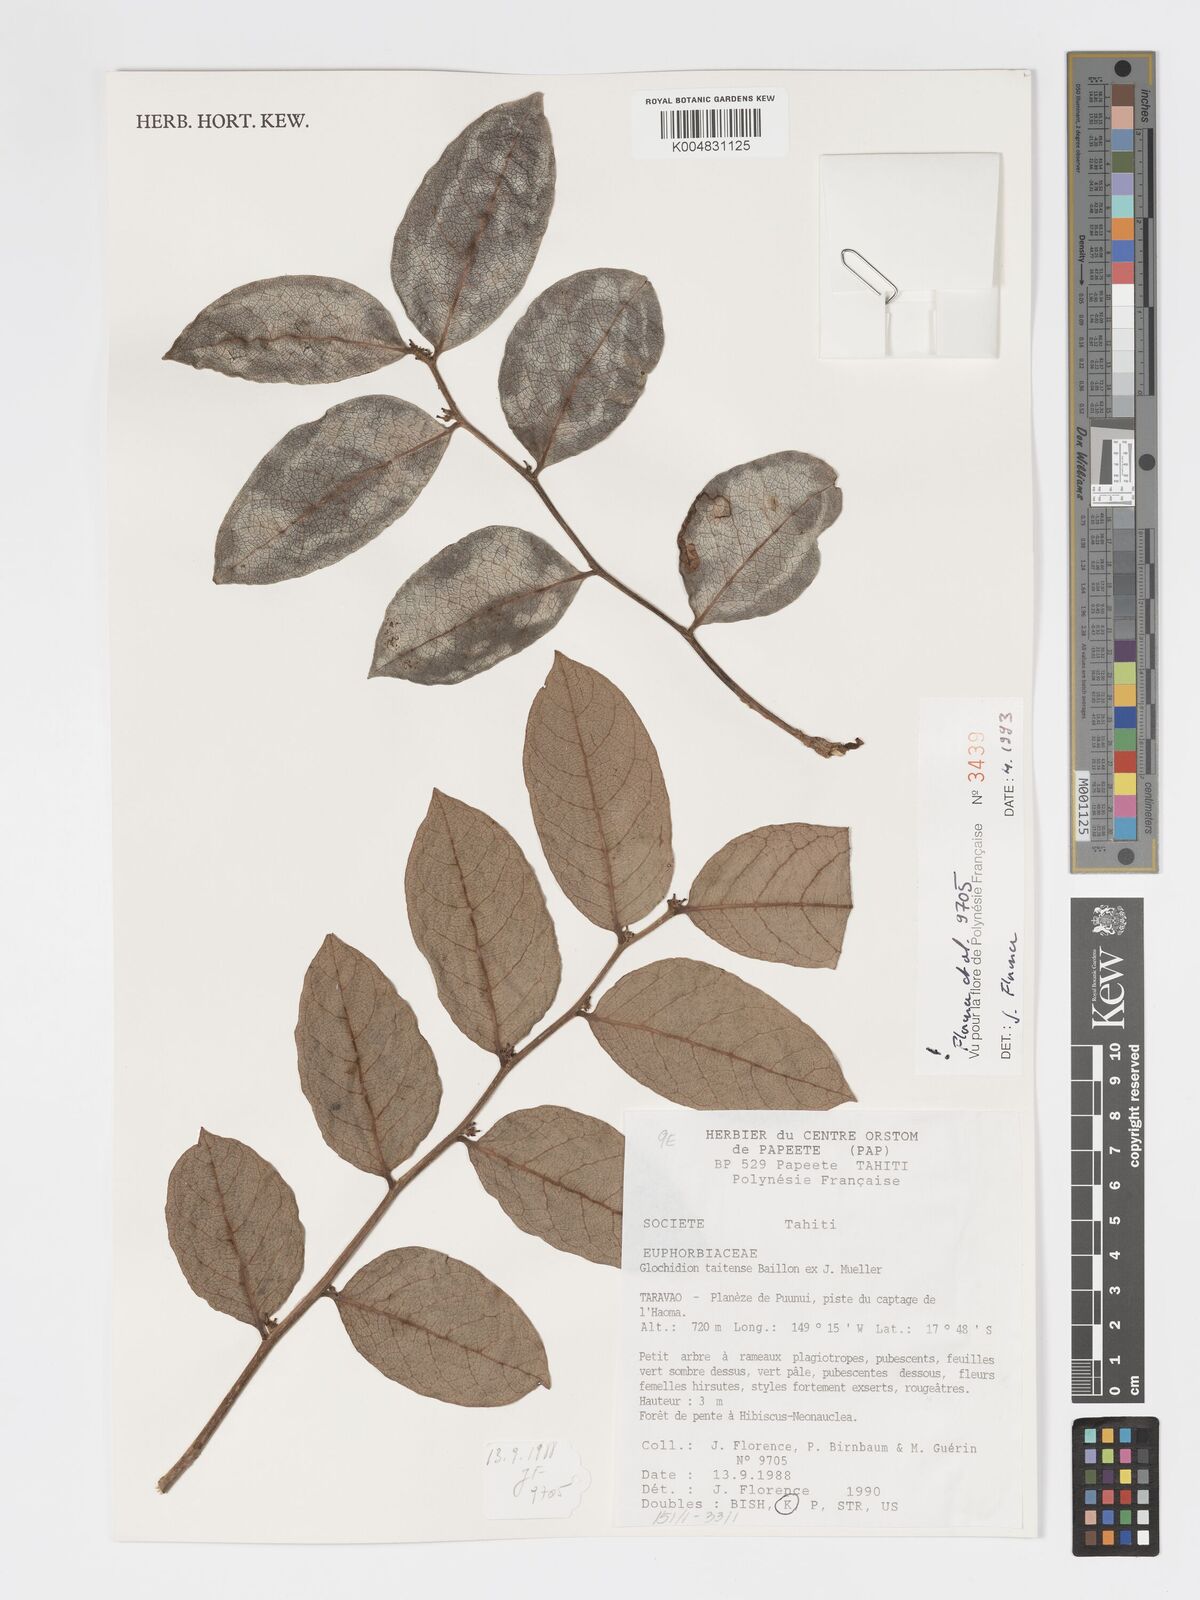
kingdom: Plantae
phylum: Tracheophyta
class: Magnoliopsida
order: Malpighiales
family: Phyllanthaceae
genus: Glochidion
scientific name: Glochidion taitense
